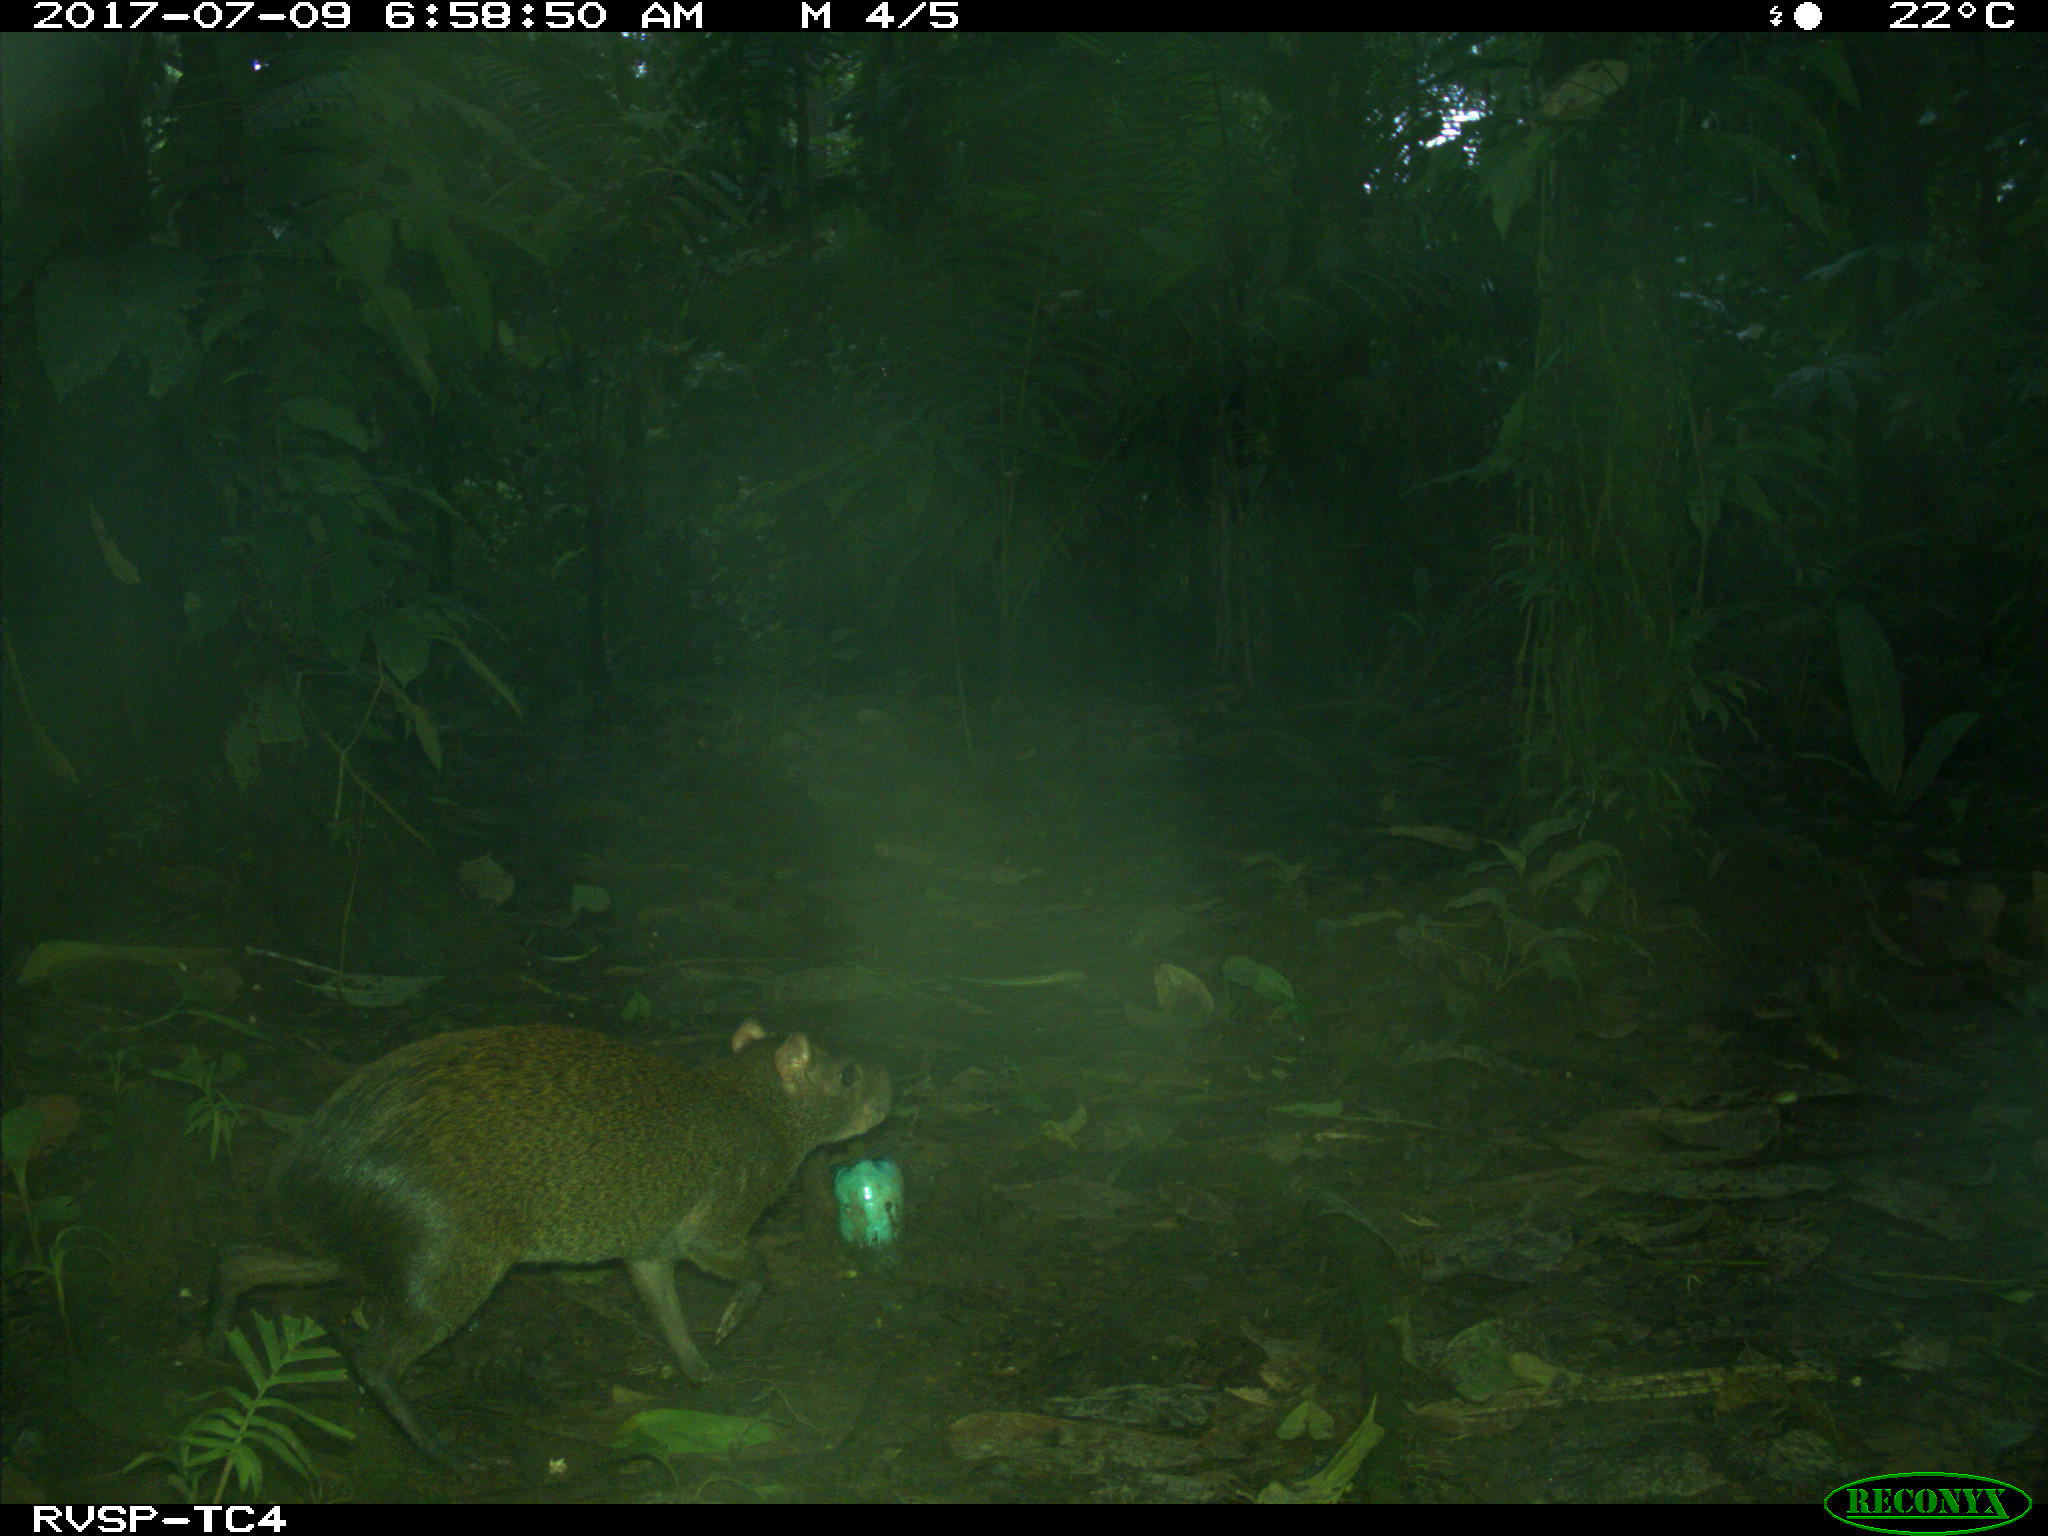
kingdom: Animalia
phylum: Chordata
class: Mammalia
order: Rodentia
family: Dasyproctidae
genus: Dasyprocta
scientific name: Dasyprocta punctata
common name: Central american agouti
